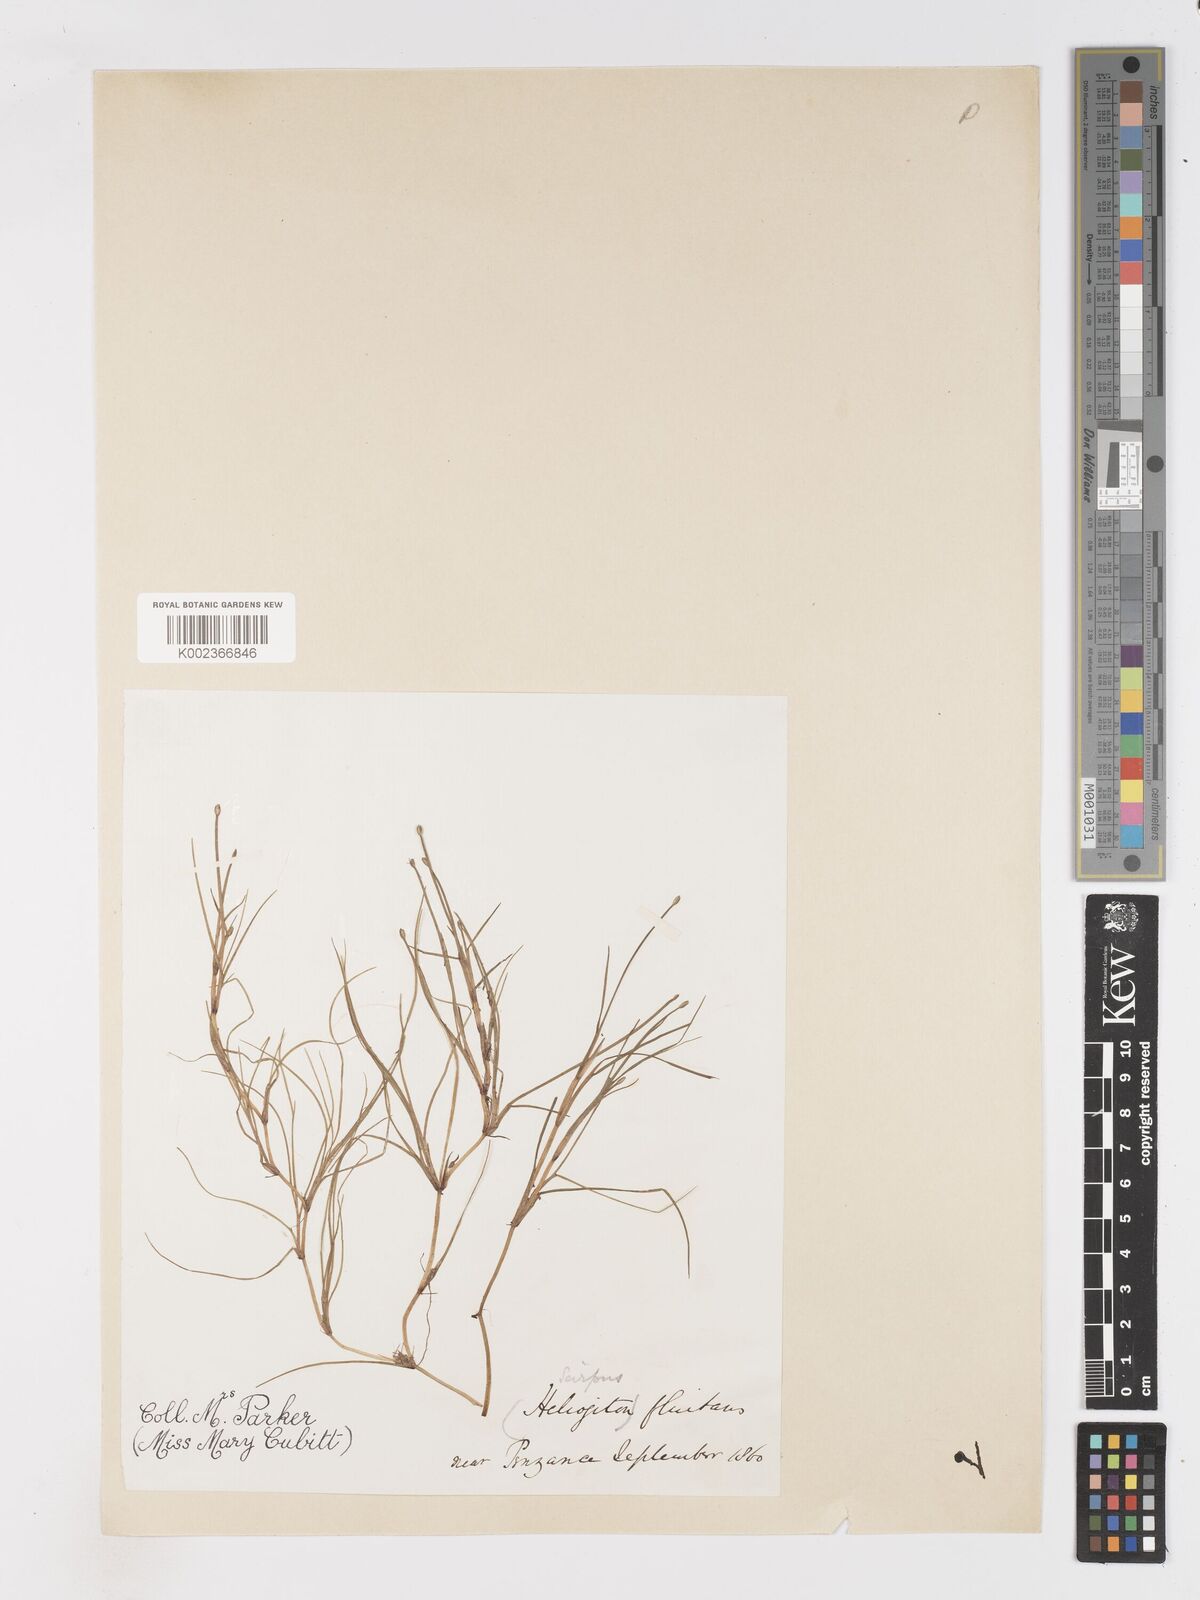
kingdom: Plantae
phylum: Tracheophyta
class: Liliopsida
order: Poales
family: Cyperaceae
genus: Isolepis
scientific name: Isolepis fluitans
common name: Floating club-rush
